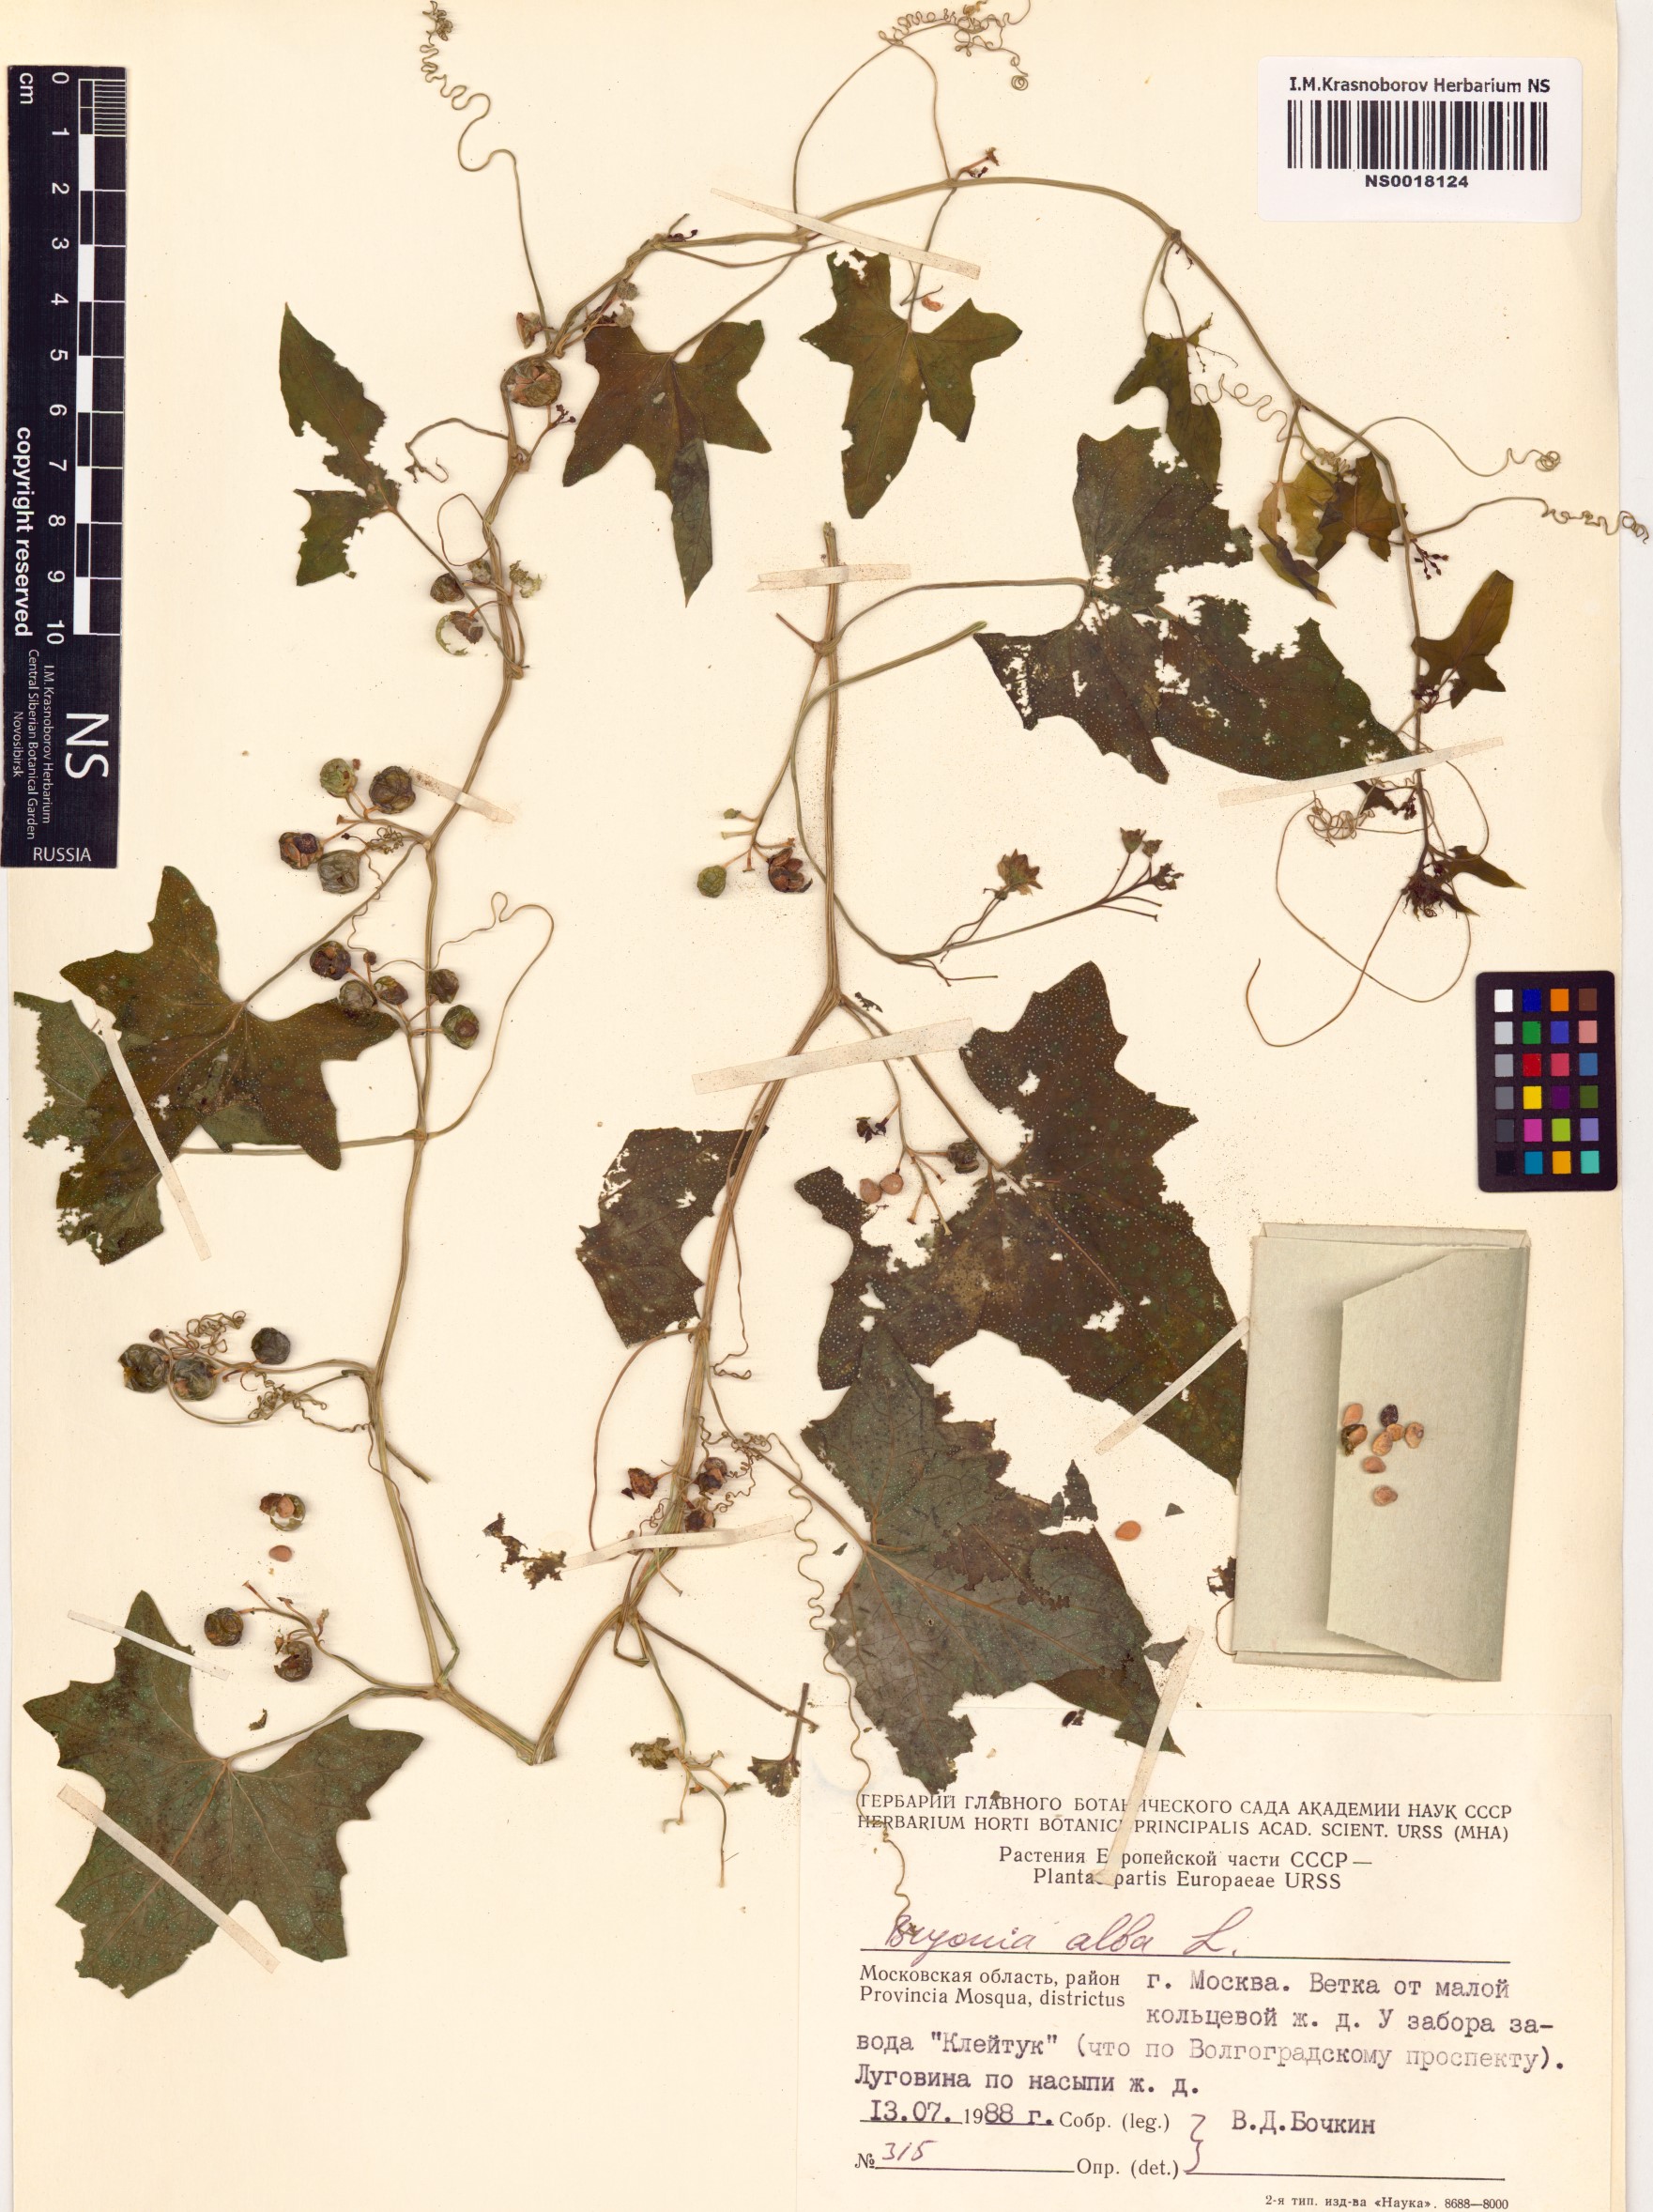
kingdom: Plantae
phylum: Tracheophyta
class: Magnoliopsida
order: Cucurbitales
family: Cucurbitaceae
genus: Bryonia
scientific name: Bryonia alba
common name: White bryony
